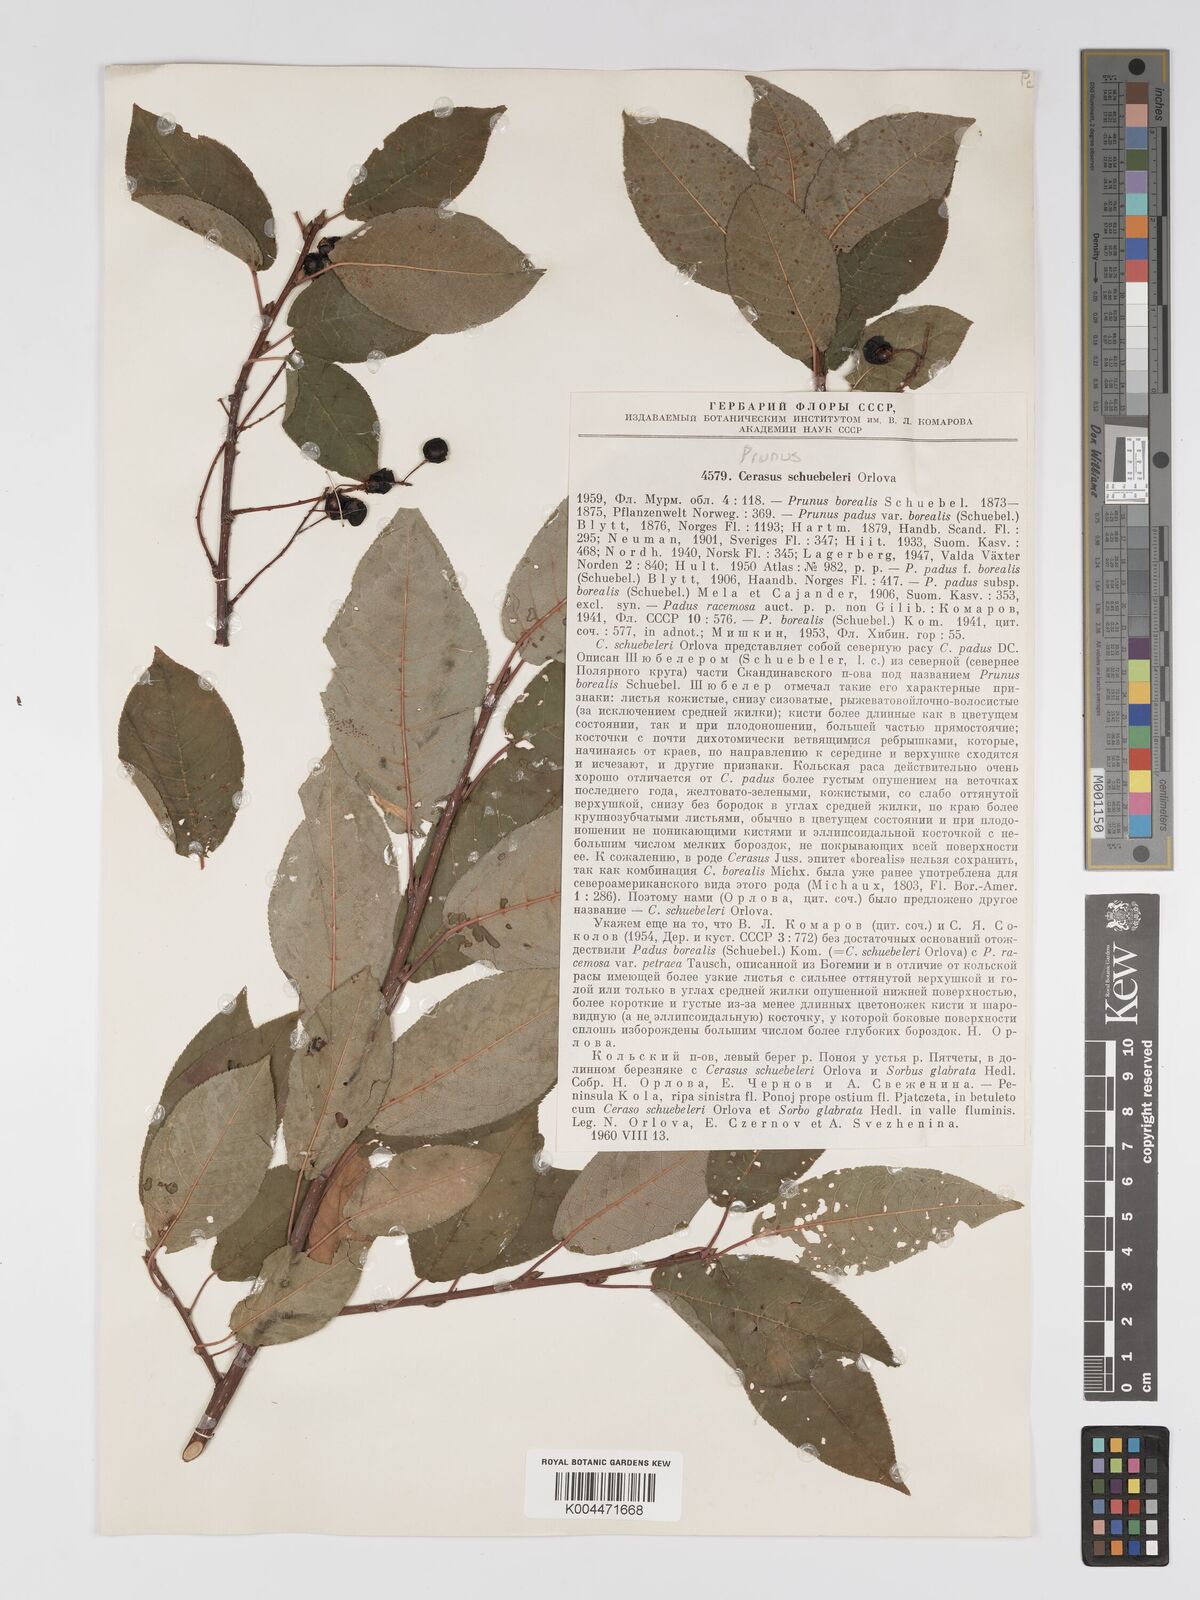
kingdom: Plantae
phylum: Tracheophyta
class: Magnoliopsida
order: Rosales
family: Rosaceae
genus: Prunus
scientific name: Prunus
